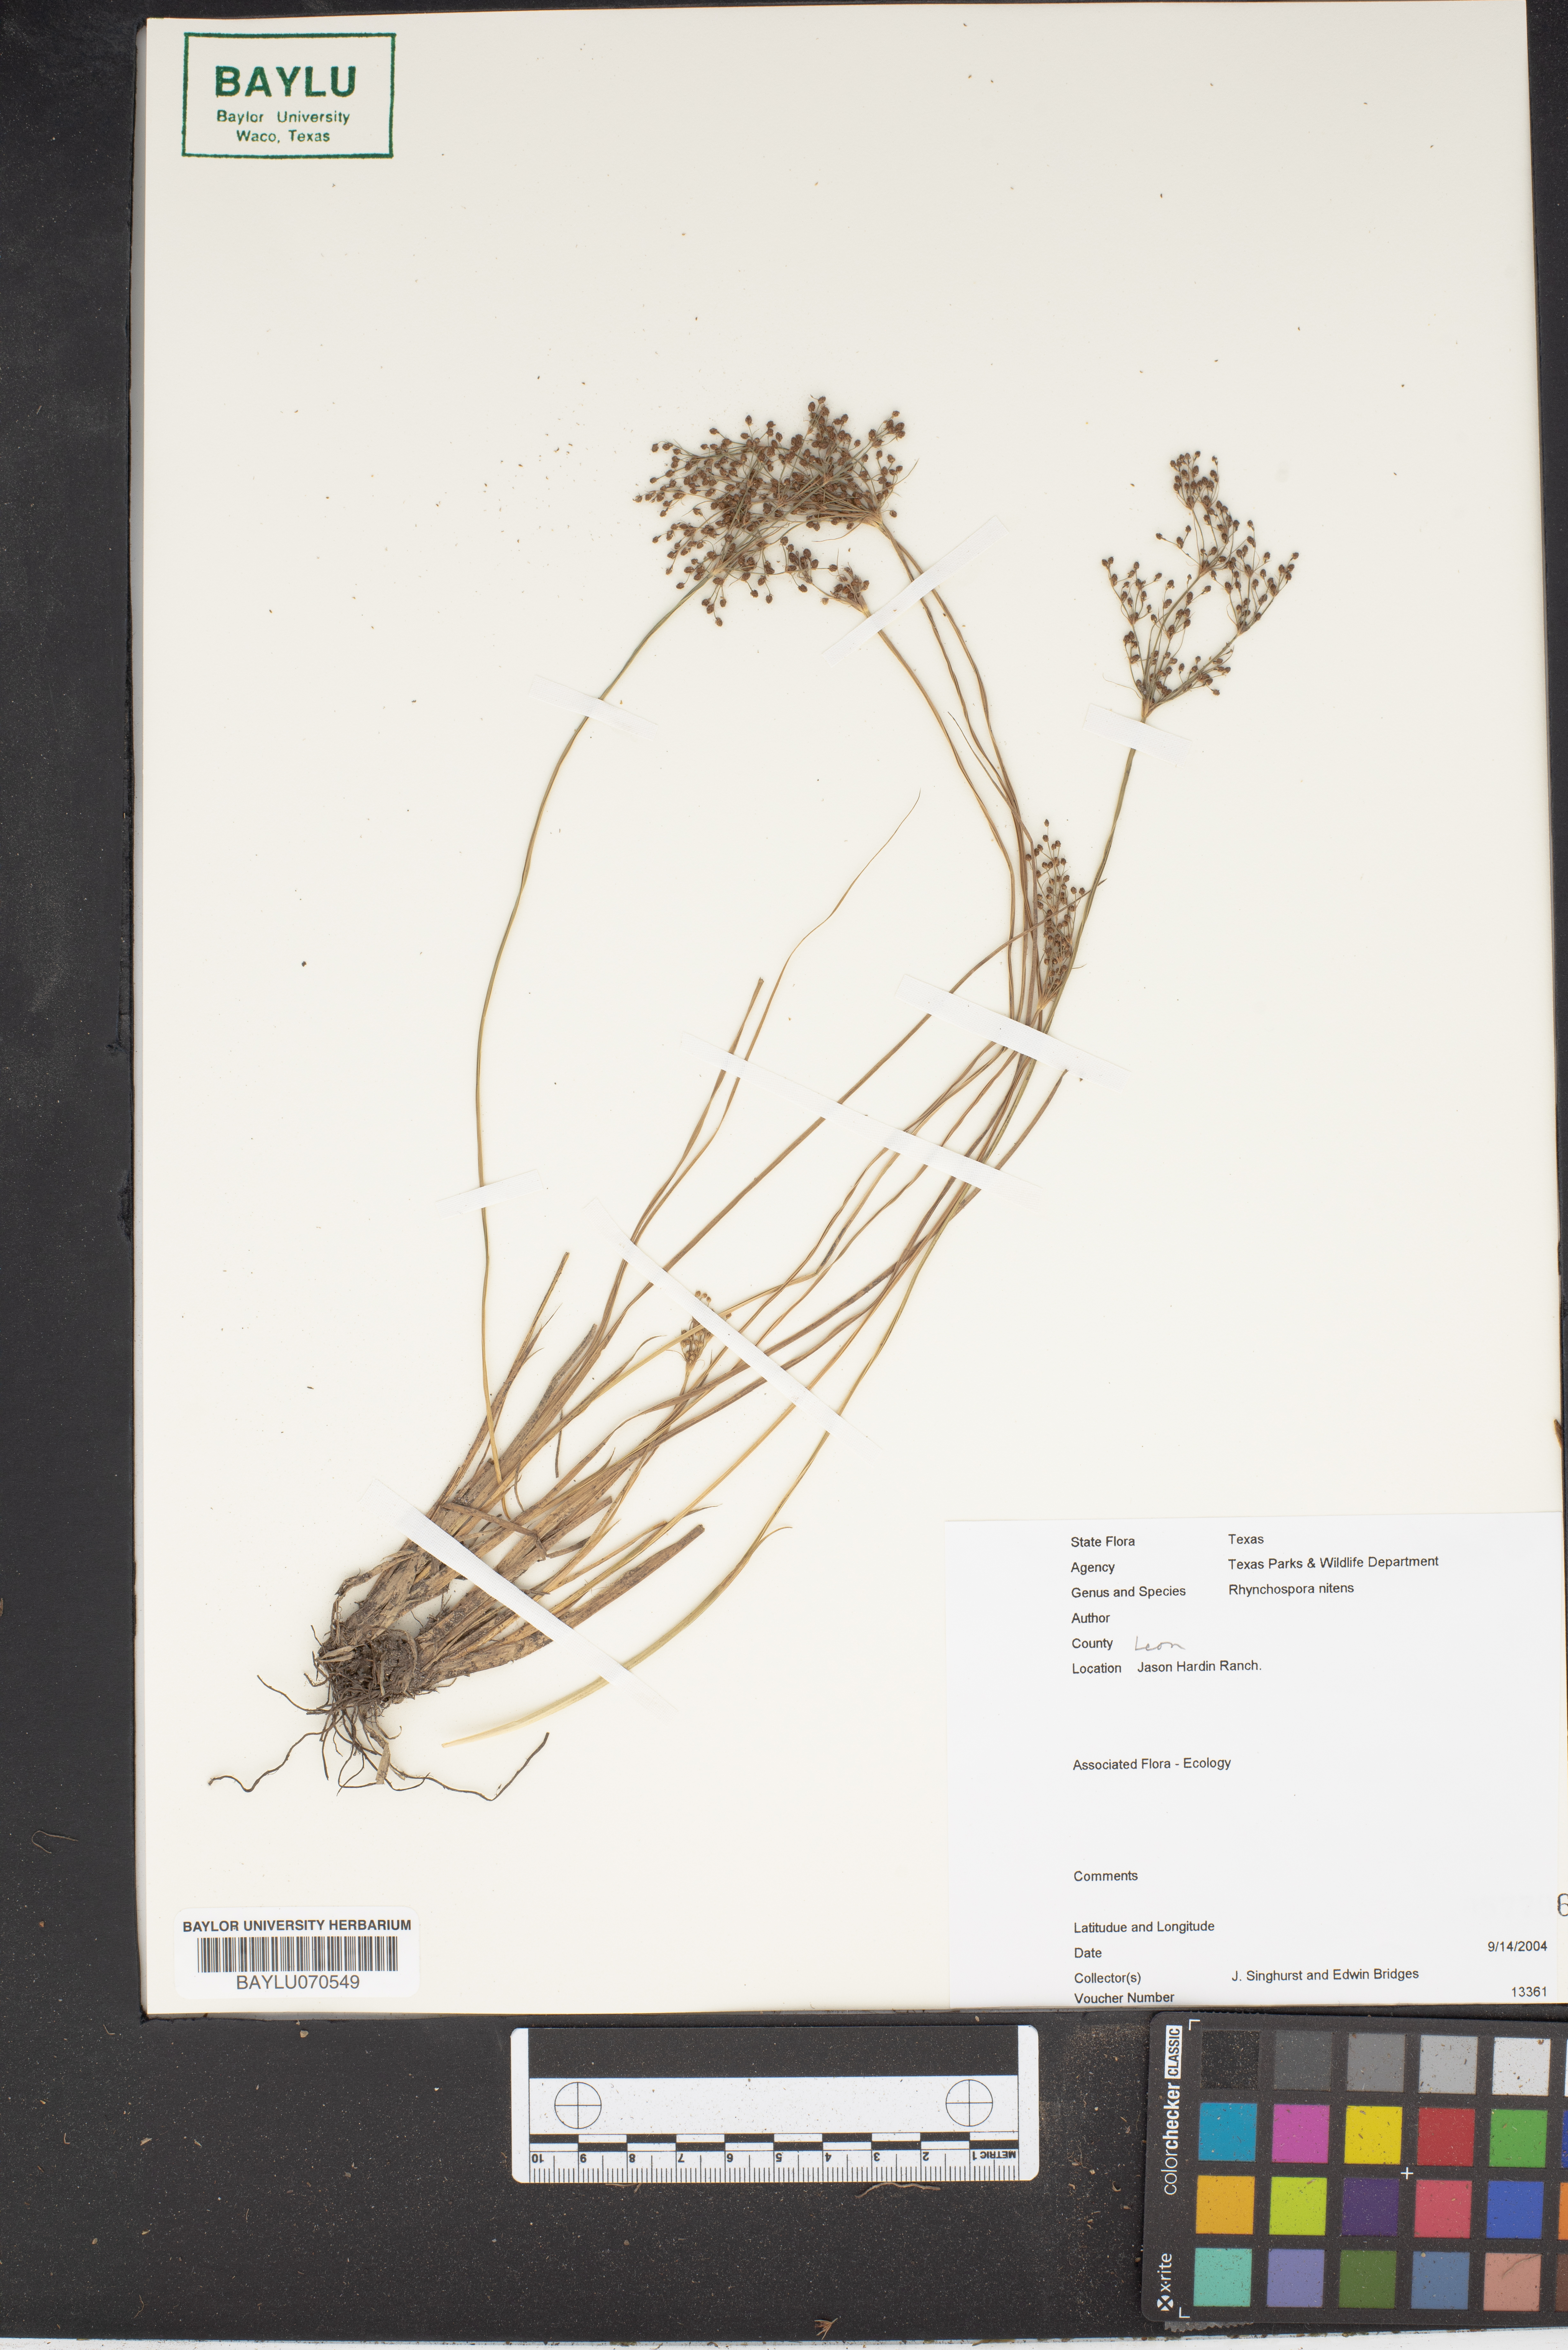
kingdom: Plantae
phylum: Tracheophyta
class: Liliopsida
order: Poales
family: Cyperaceae
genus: Rhynchospora
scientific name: Rhynchospora nitens
